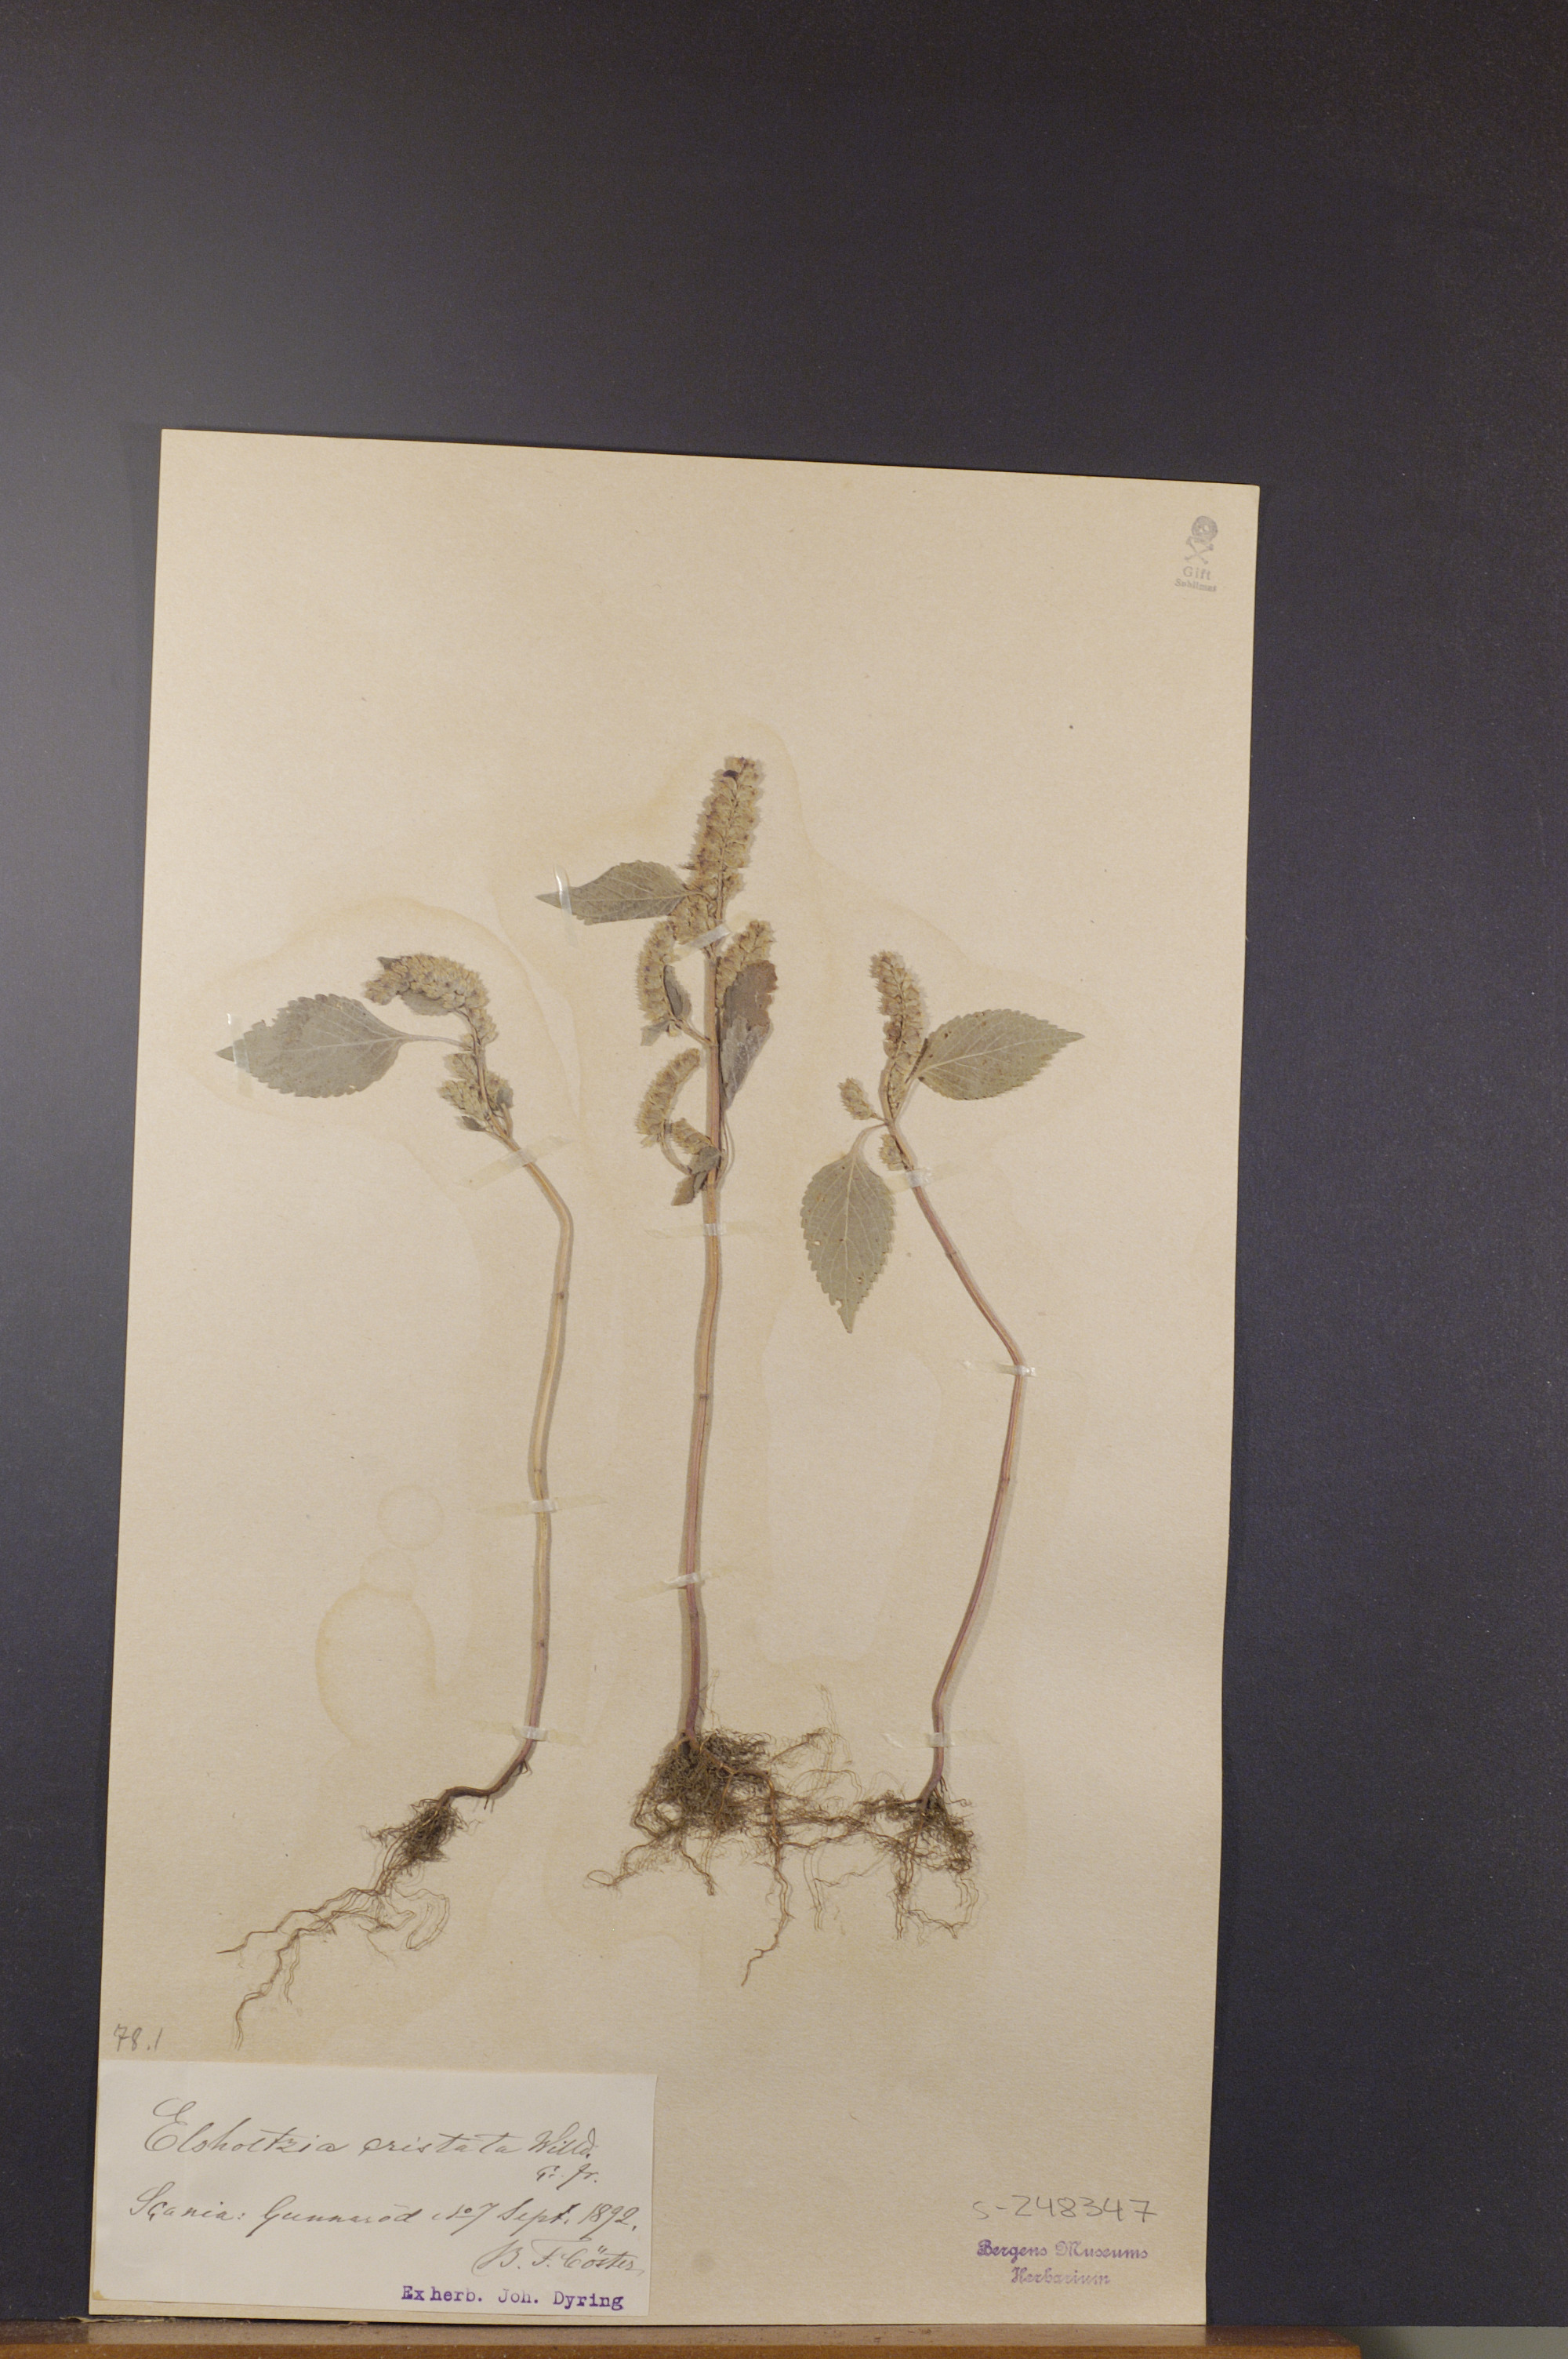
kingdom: Plantae
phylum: Tracheophyta
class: Magnoliopsida
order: Lamiales
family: Lamiaceae
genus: Elsholtzia
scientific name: Elsholtzia ciliata
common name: Ciliate elsholtzia
